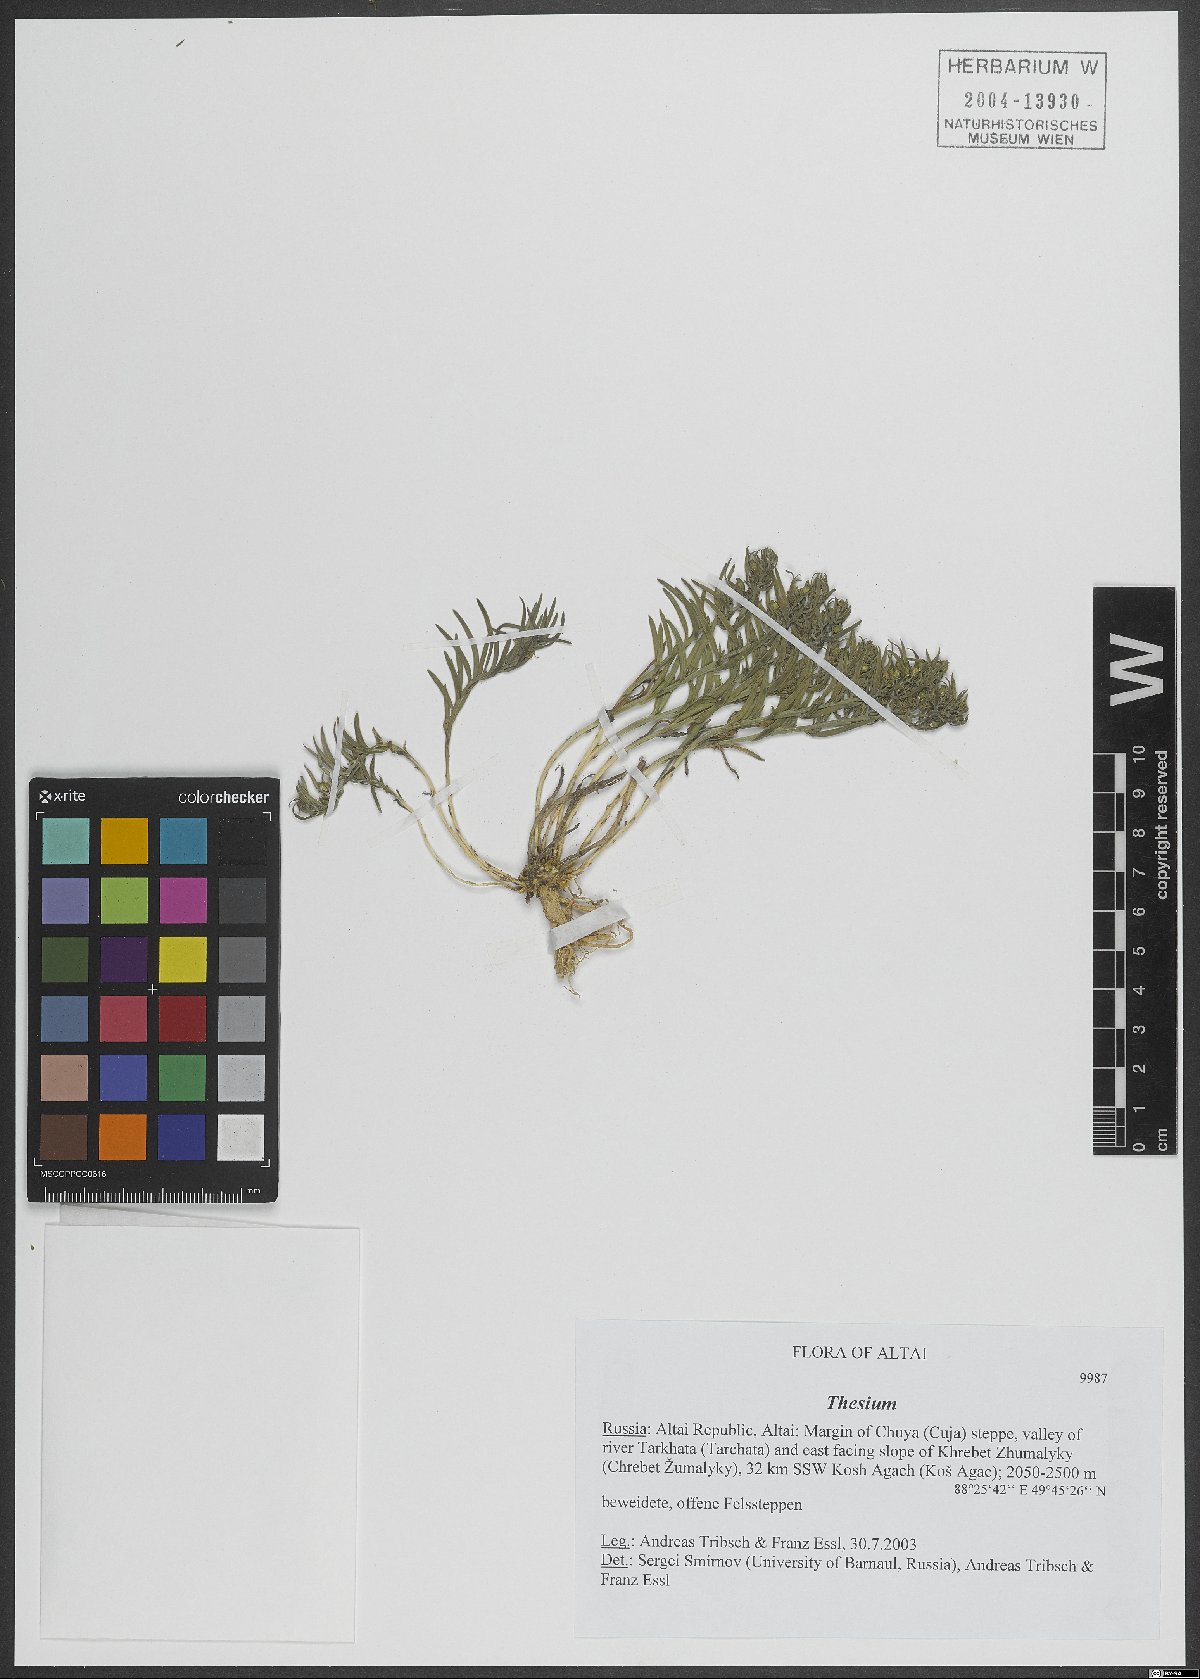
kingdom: Plantae
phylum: Tracheophyta
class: Magnoliopsida
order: Santalales
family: Thesiaceae
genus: Thesium
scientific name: Thesium
